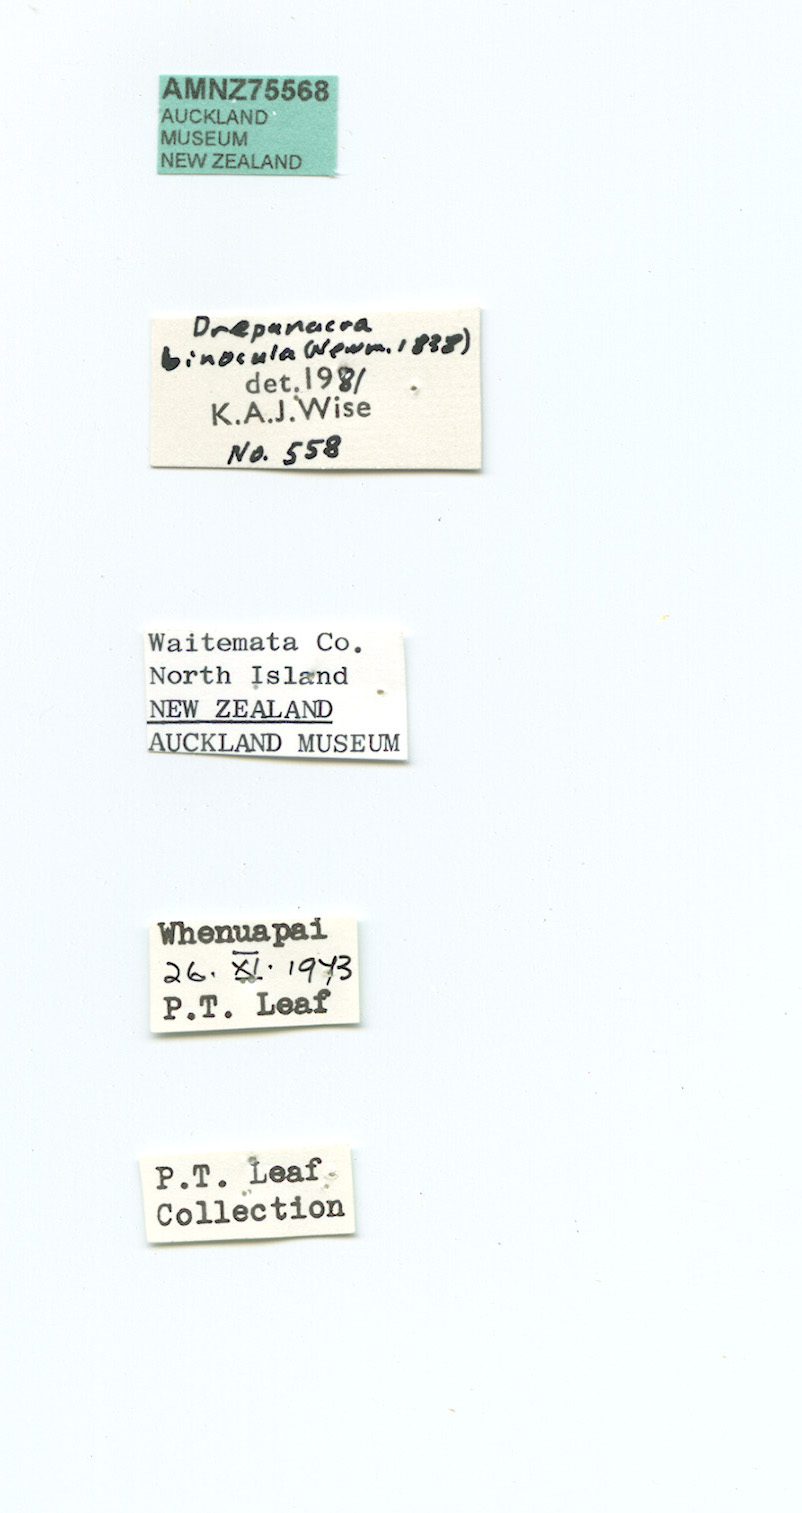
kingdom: Animalia
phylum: Arthropoda
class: Insecta
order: Neuroptera
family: Hemerobiidae
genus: Drepanacra
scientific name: Drepanacra binocula
